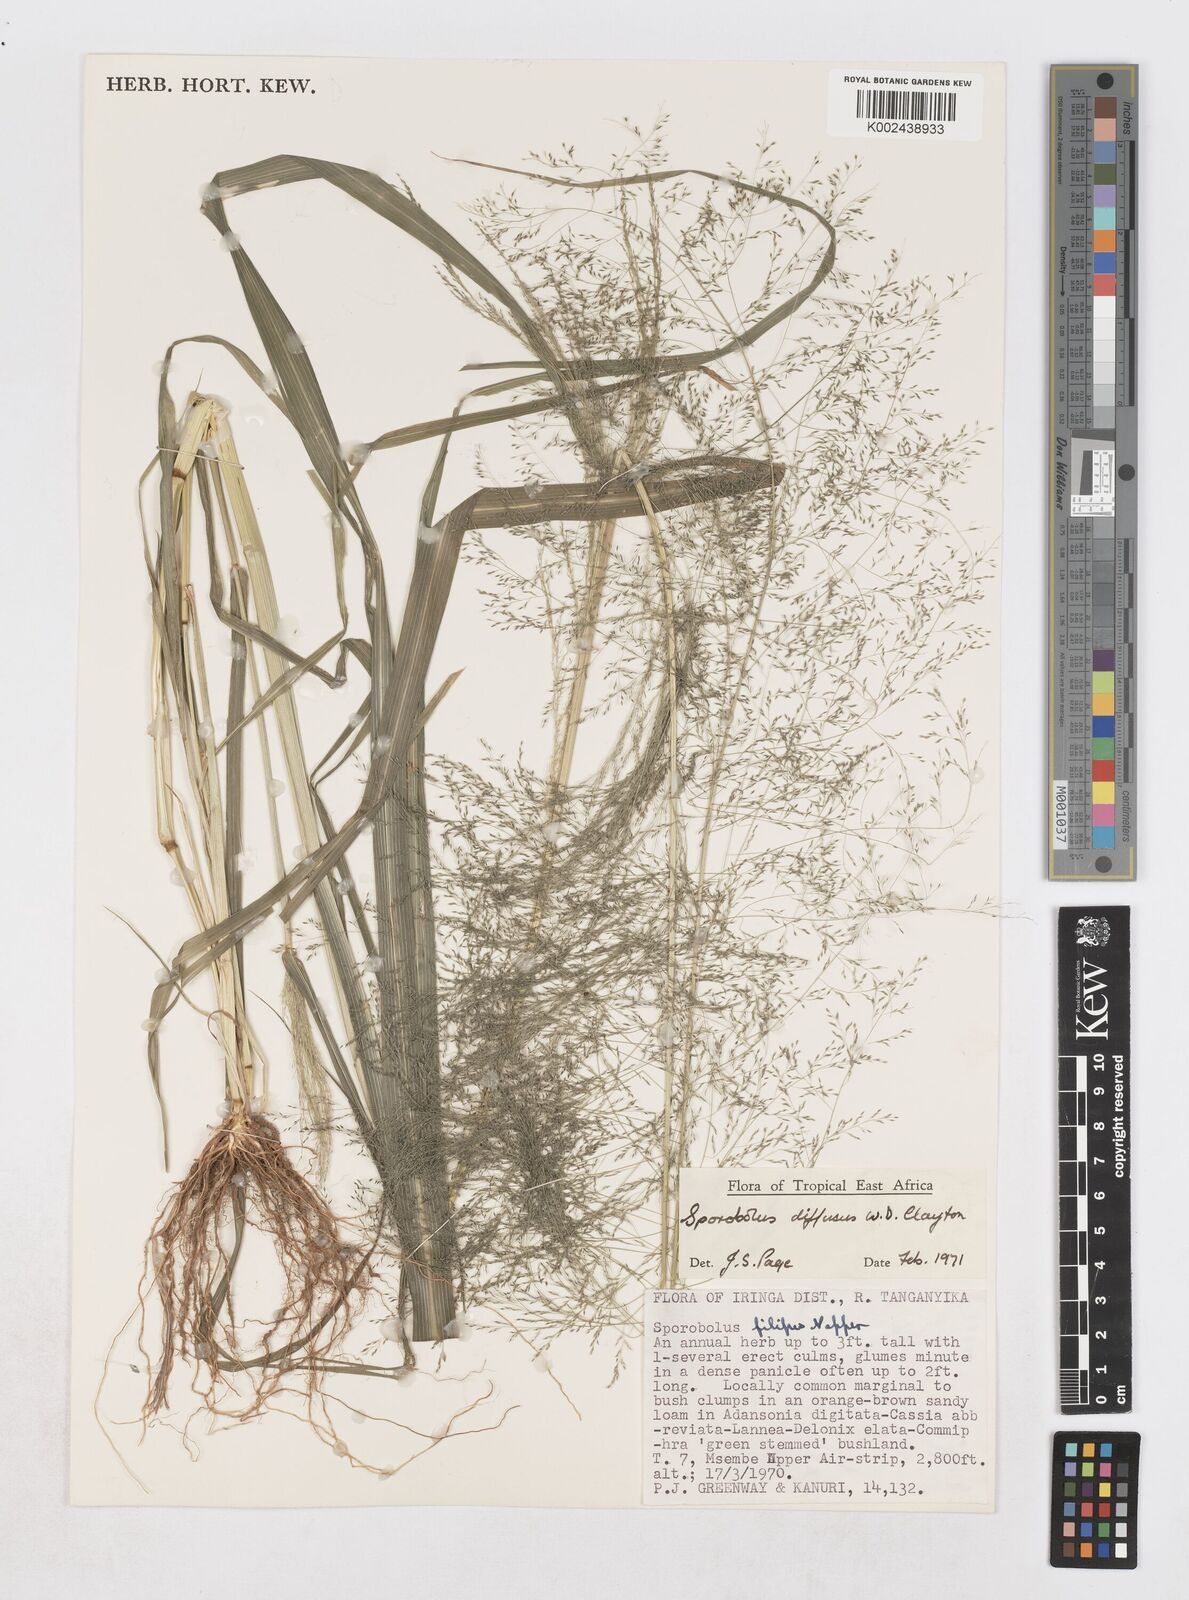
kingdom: Plantae
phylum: Tracheophyta
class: Liliopsida
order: Poales
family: Poaceae
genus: Sporobolus
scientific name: Sporobolus macranthelus
